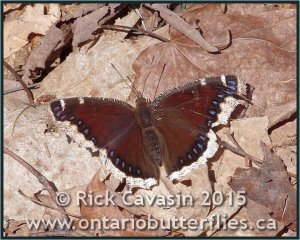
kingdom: Animalia
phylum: Arthropoda
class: Insecta
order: Lepidoptera
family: Nymphalidae
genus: Nymphalis
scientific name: Nymphalis antiopa
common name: Mourning Cloak
